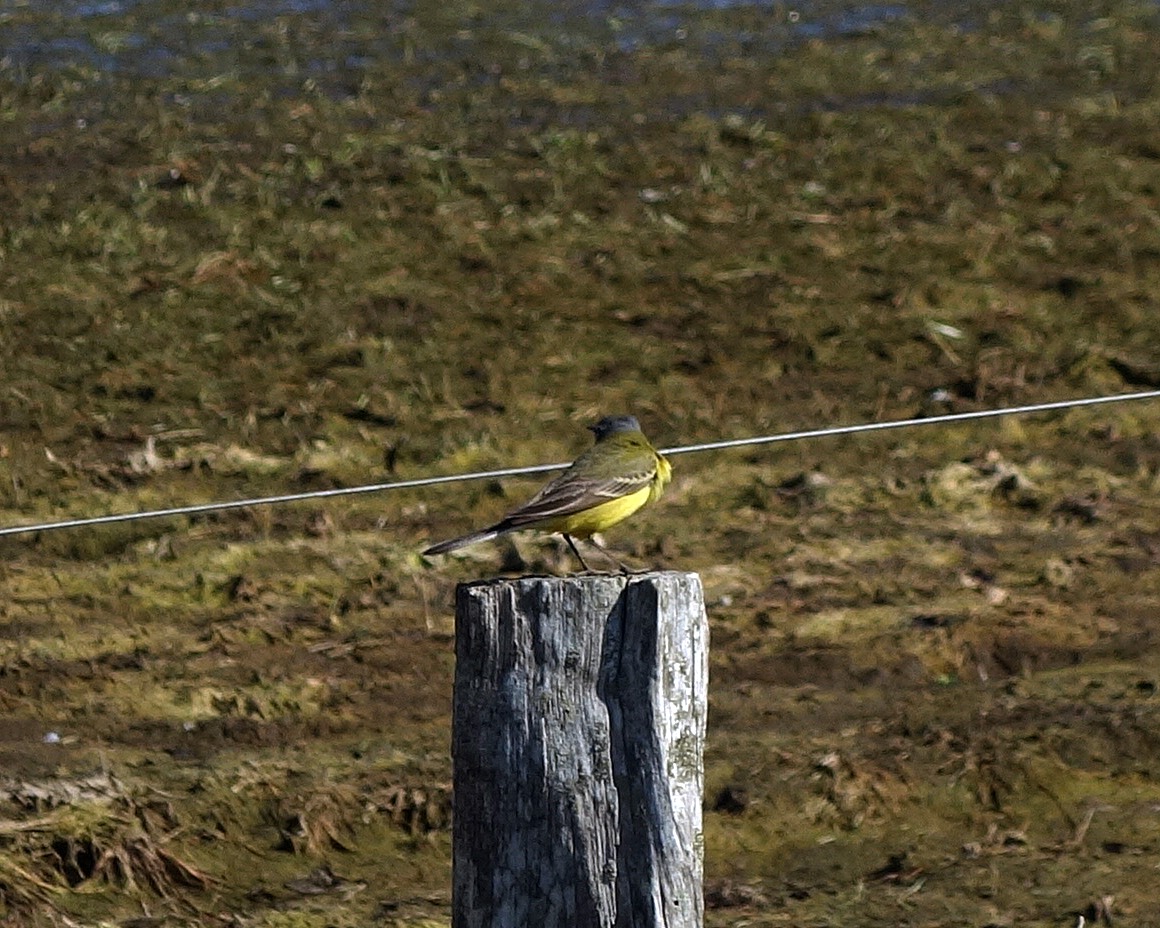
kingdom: Animalia
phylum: Chordata
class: Aves
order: Passeriformes
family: Motacillidae
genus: Motacilla
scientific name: Motacilla flava
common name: Gul vipstjert
